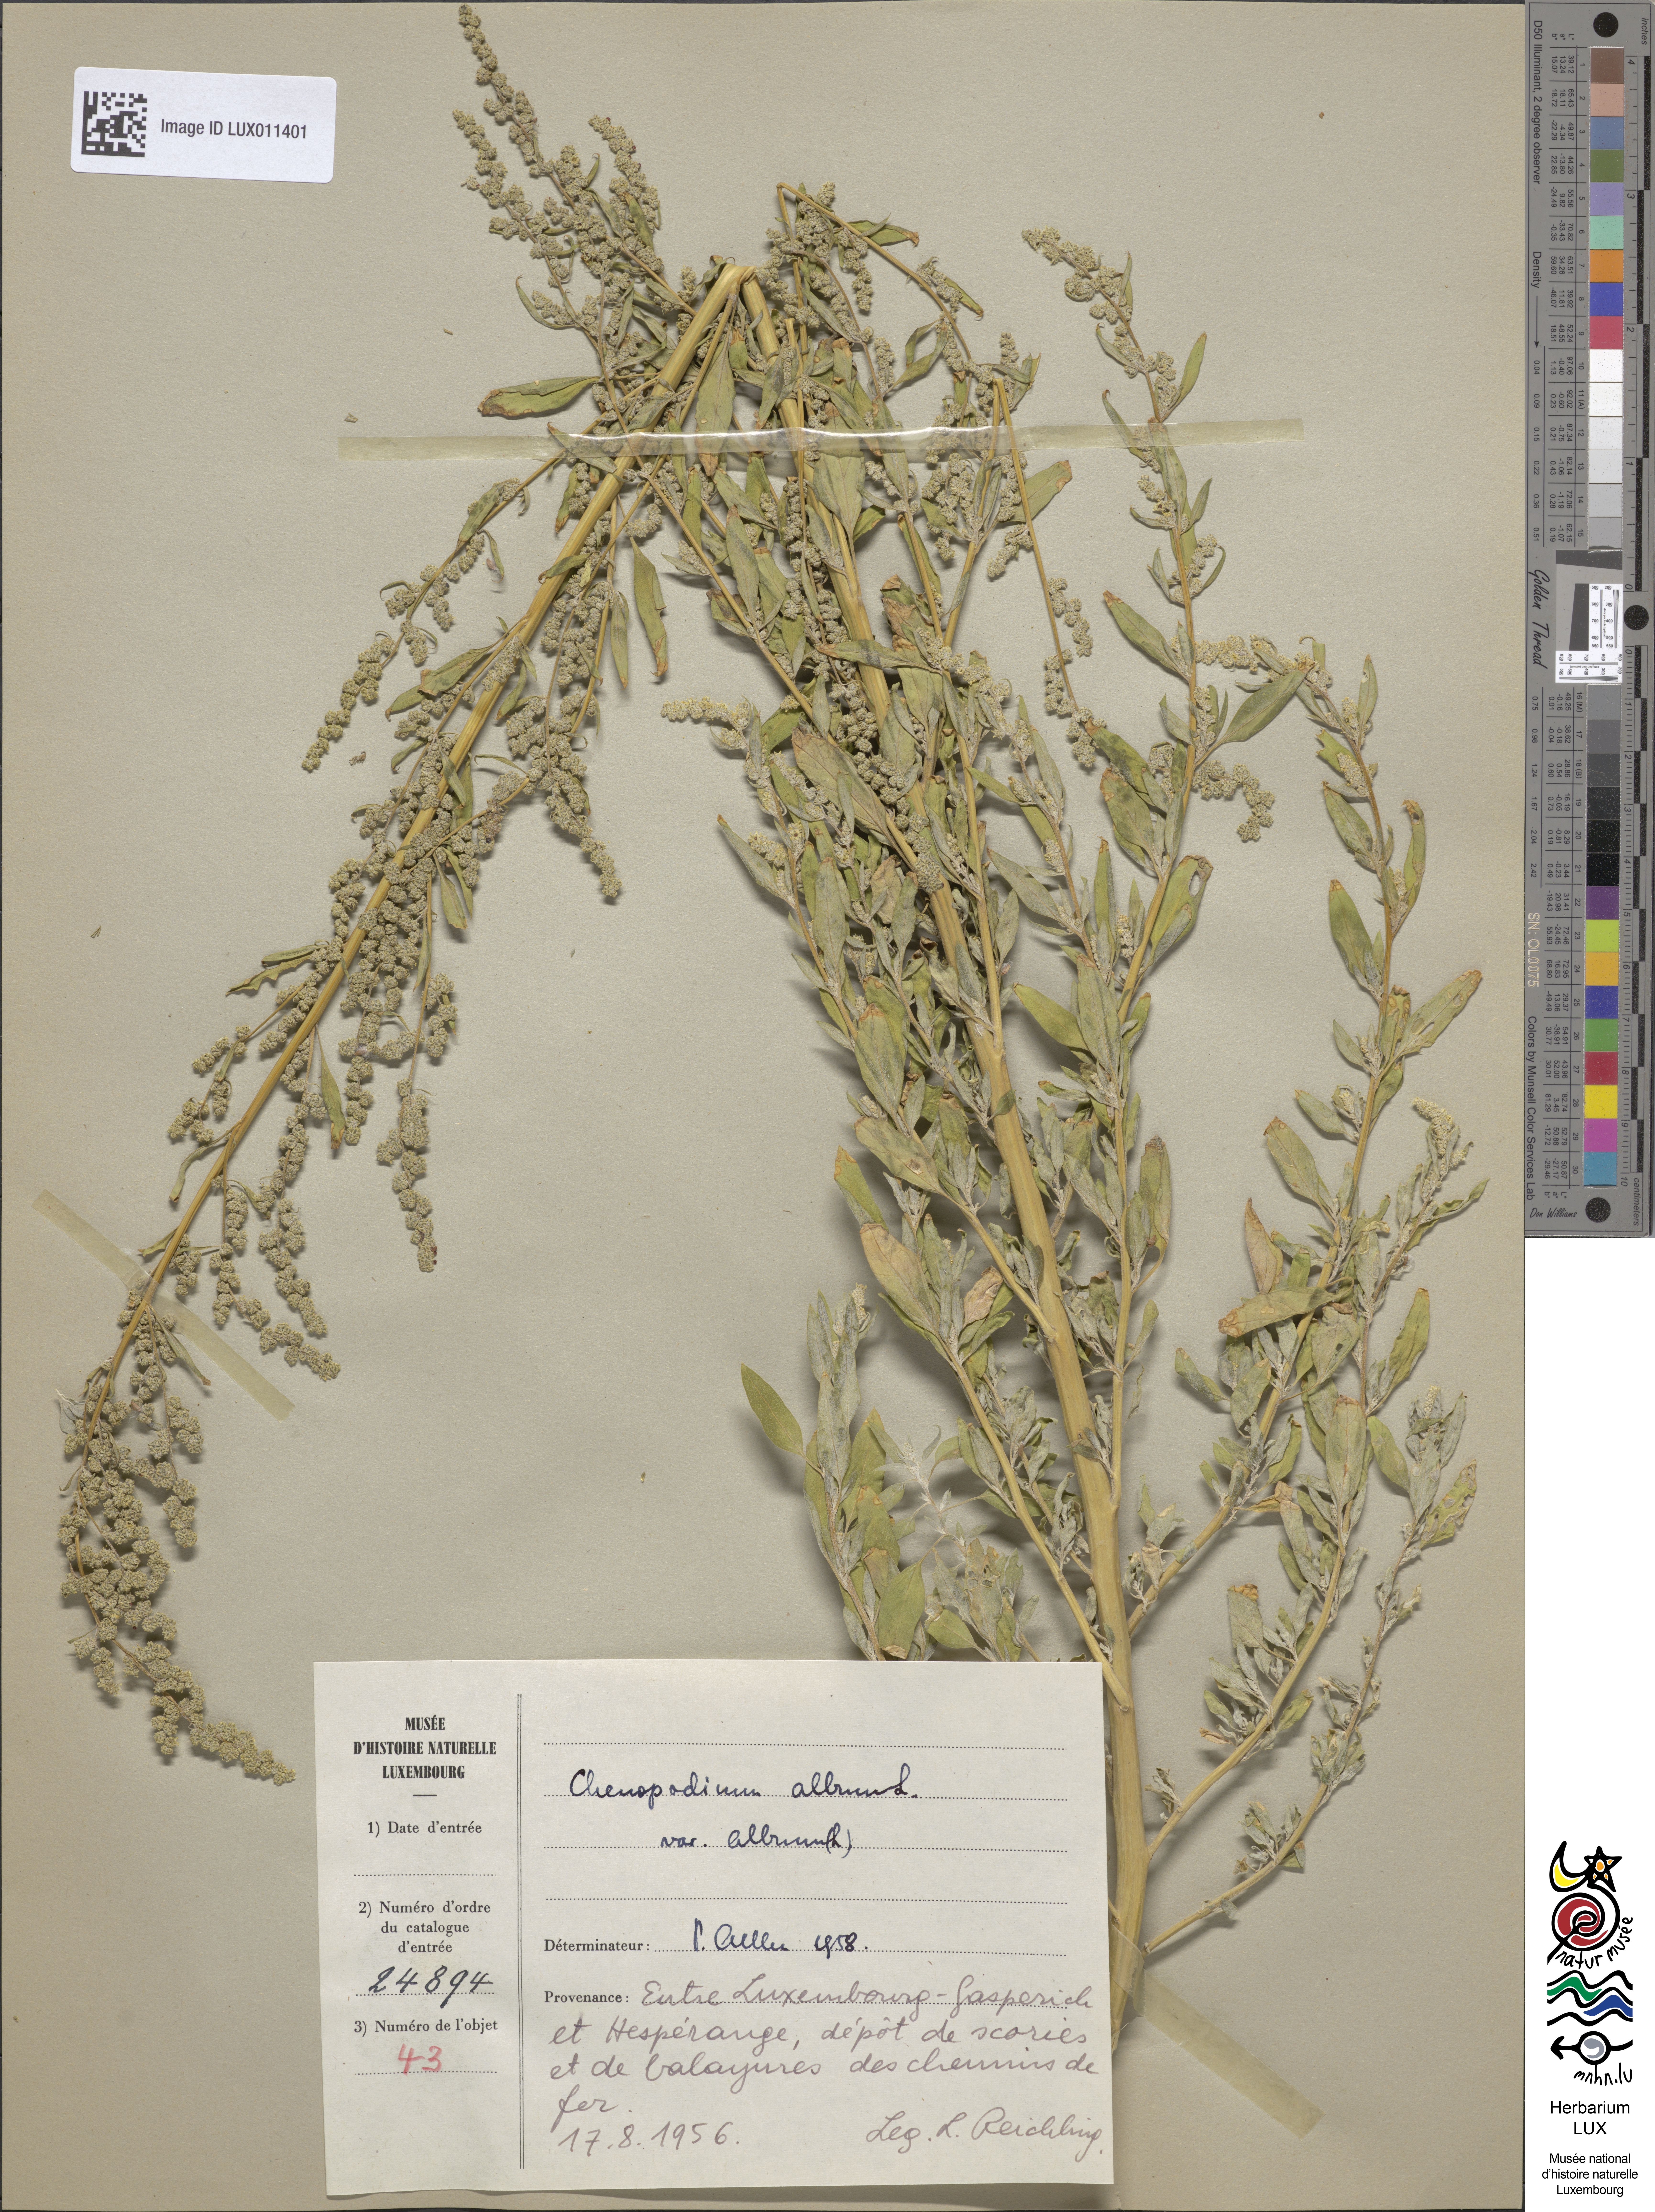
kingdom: Plantae
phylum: Tracheophyta
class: Magnoliopsida
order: Caryophyllales
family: Amaranthaceae
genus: Chenopodium
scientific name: Chenopodium album
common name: Fat-hen
